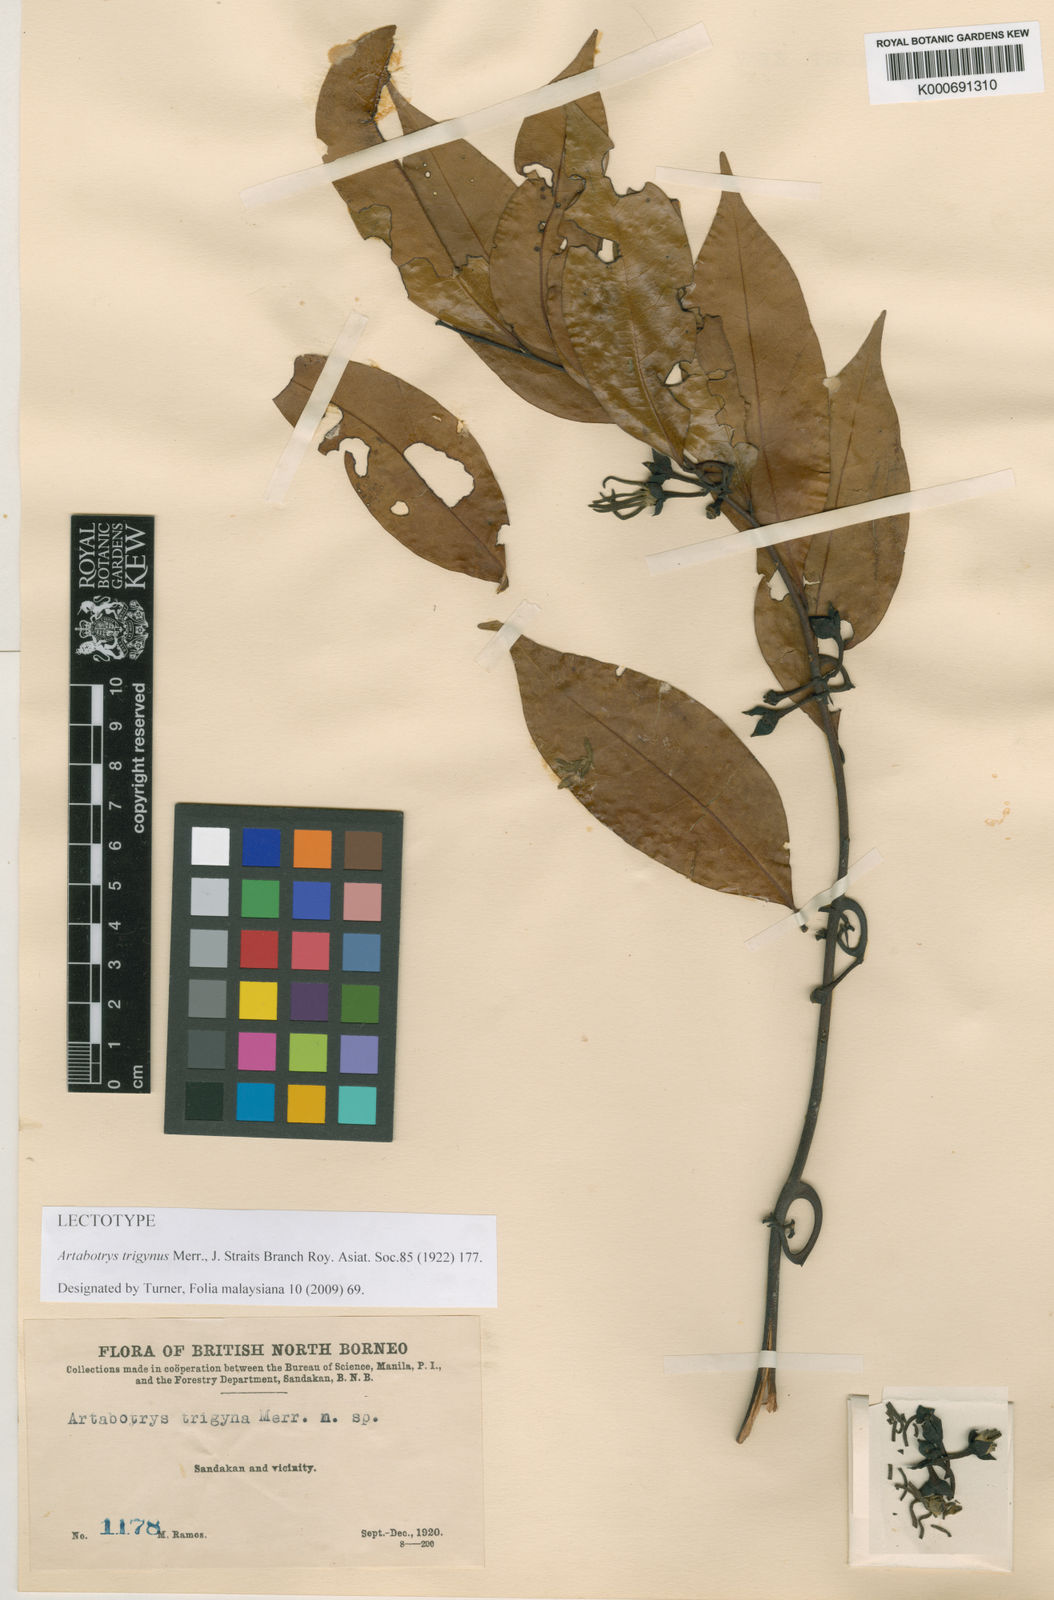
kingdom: Plantae
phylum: Tracheophyta
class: Magnoliopsida
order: Magnoliales
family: Annonaceae
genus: Artabotrys
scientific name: Artabotrys suaveolens
